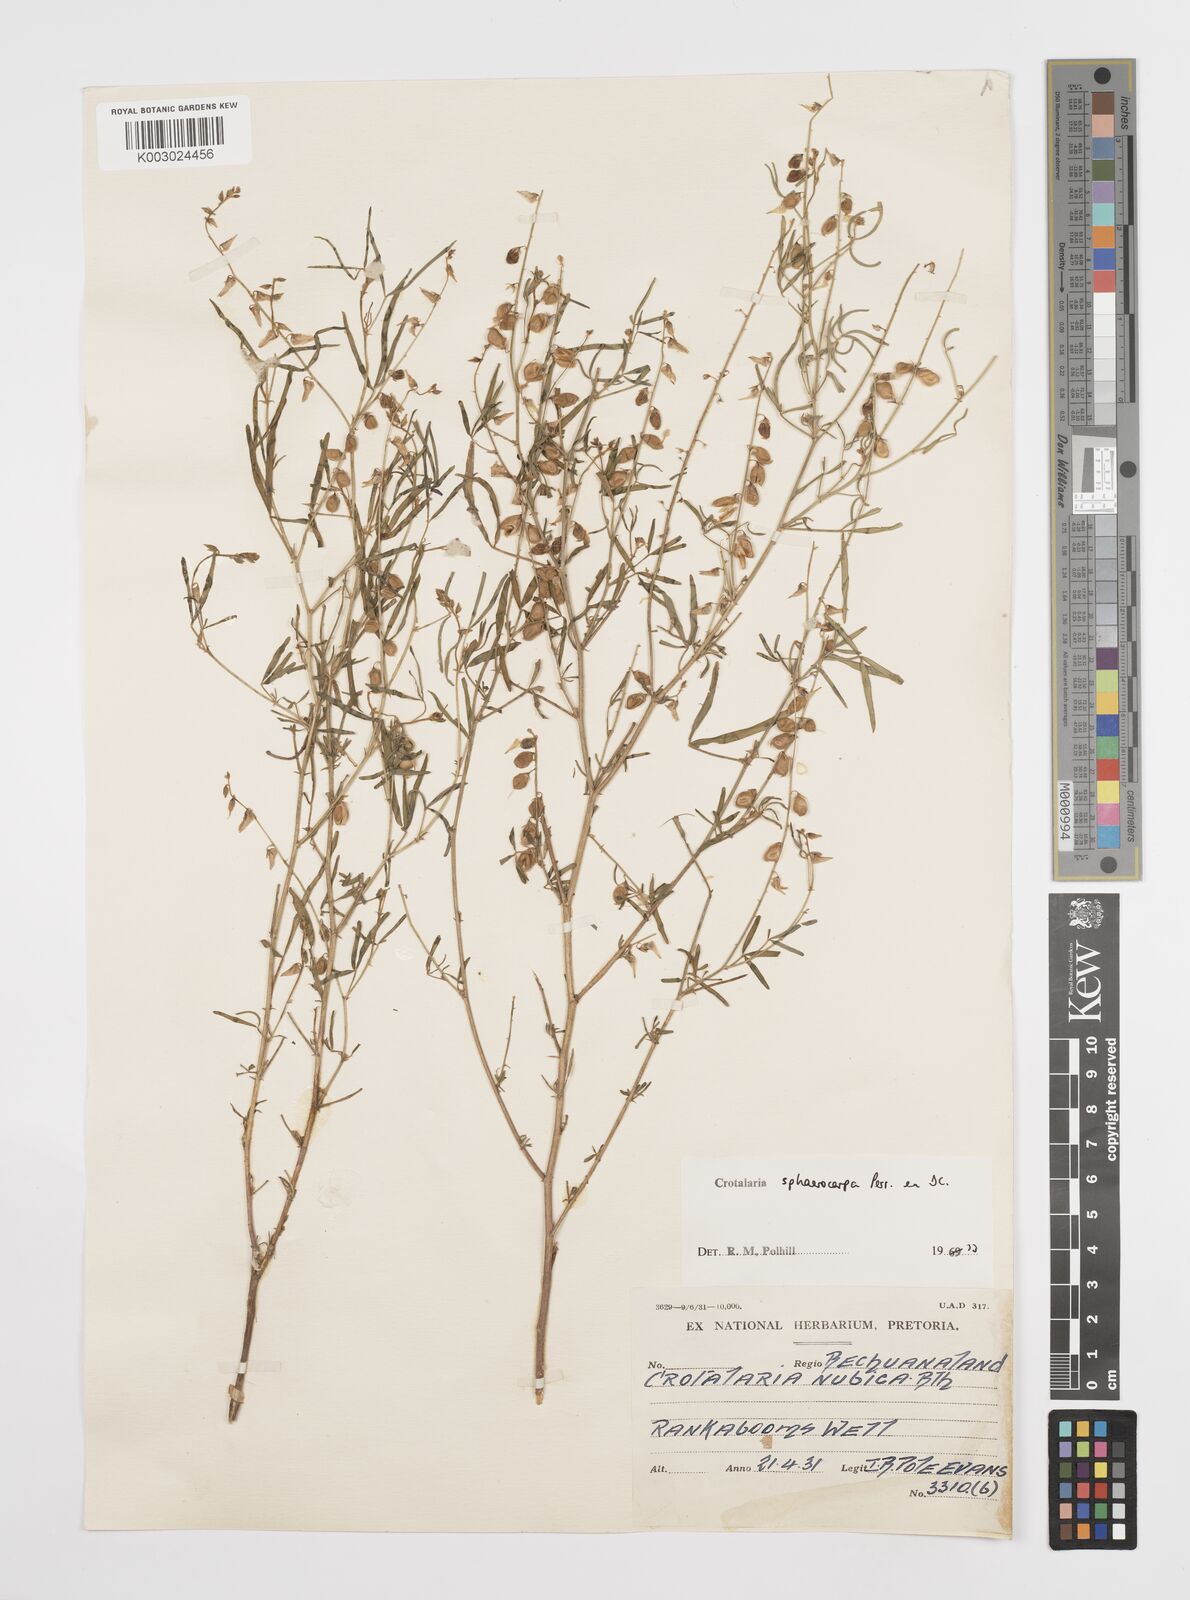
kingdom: Plantae
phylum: Tracheophyta
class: Magnoliopsida
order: Fabales
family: Fabaceae
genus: Crotalaria
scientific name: Crotalaria sphaerocarpa
